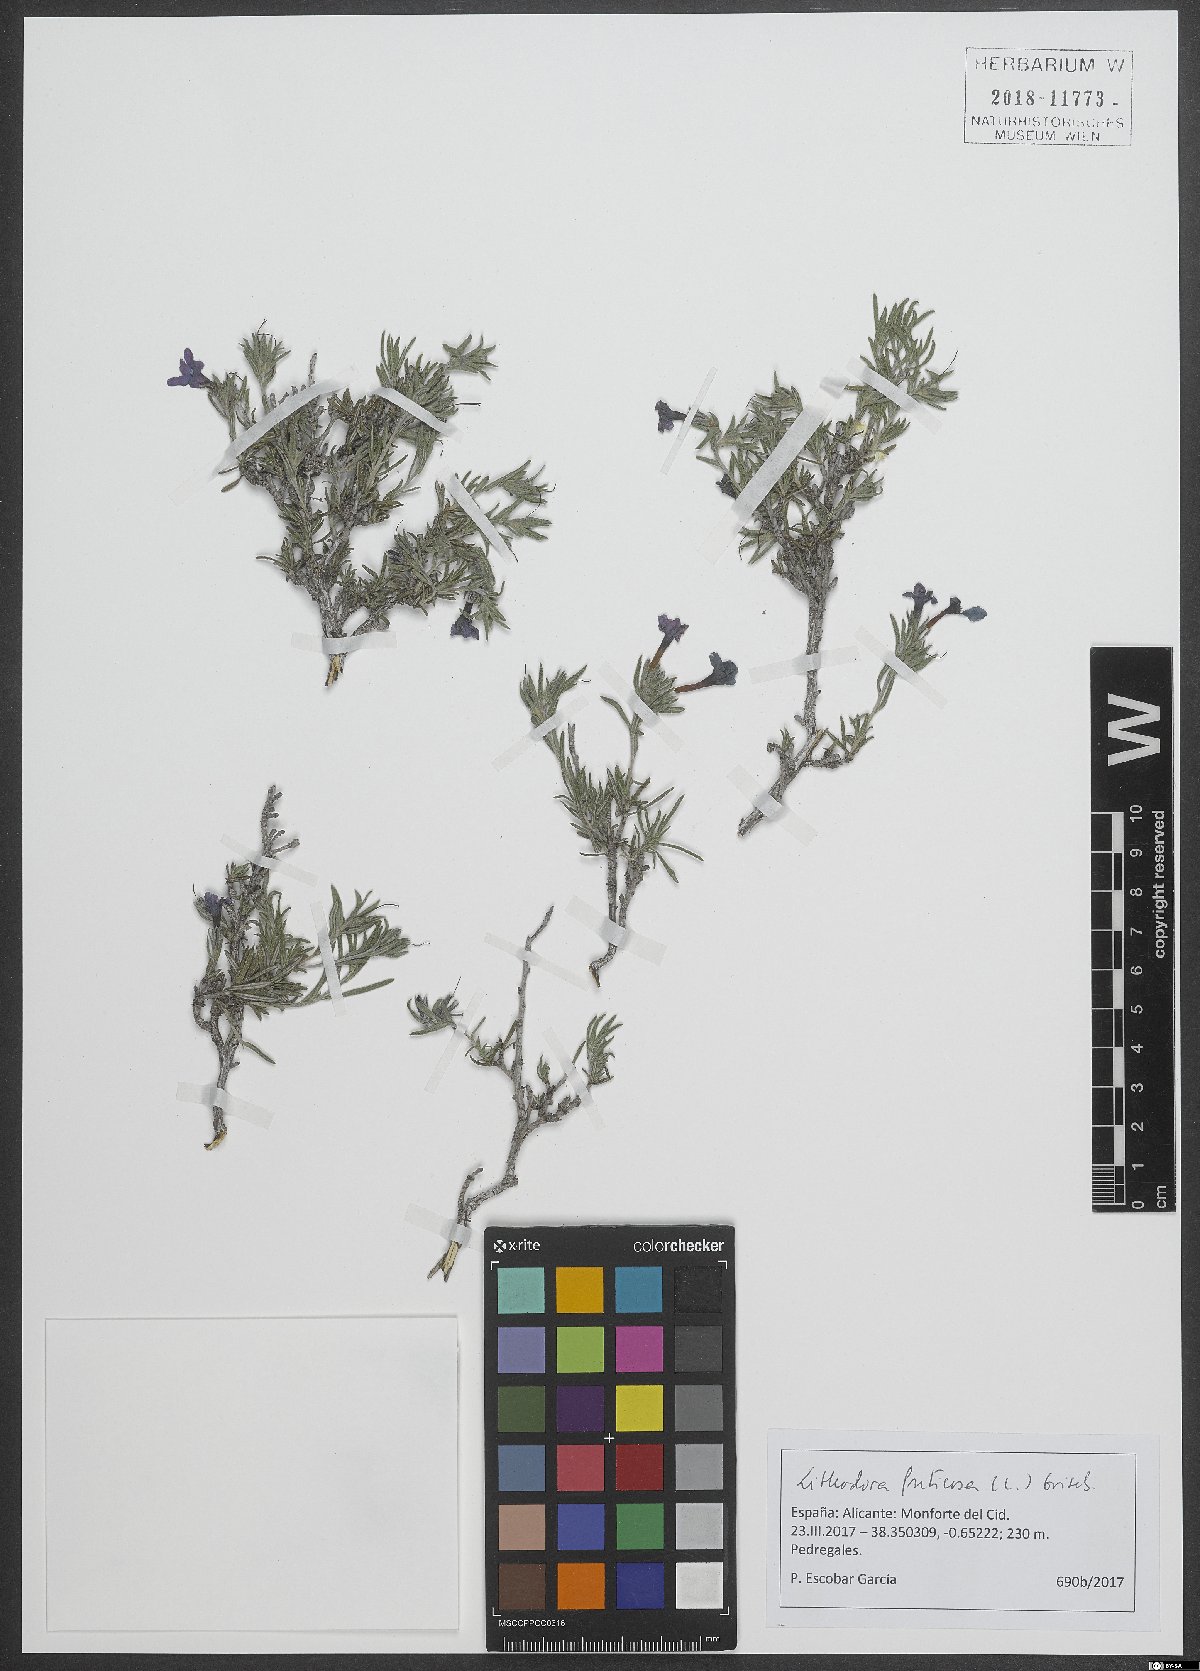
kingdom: Plantae
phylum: Tracheophyta
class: Magnoliopsida
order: Boraginales
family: Boraginaceae
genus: Lithodora
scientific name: Lithodora fruticosa
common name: Shrubby gromwell
